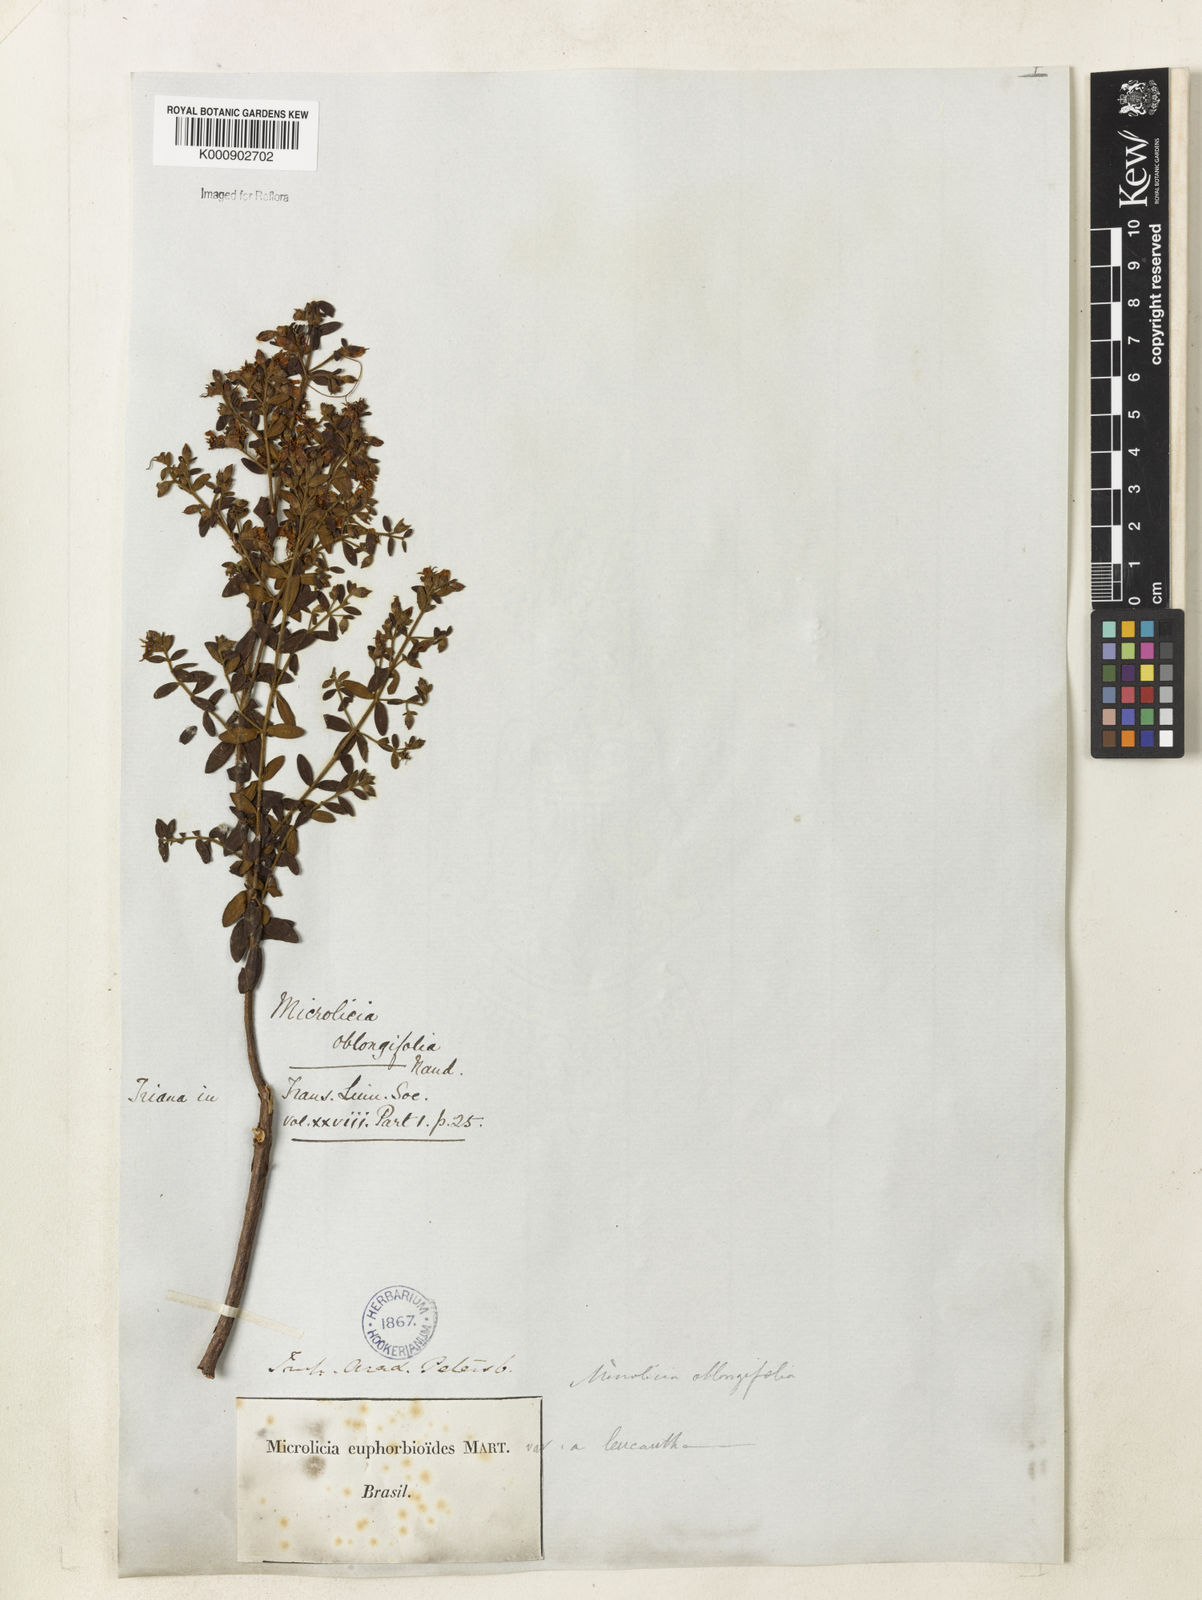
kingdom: Plantae
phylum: Tracheophyta
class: Magnoliopsida
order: Myrtales
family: Melastomataceae
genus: Microlicia
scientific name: Microlicia euphorbioides
